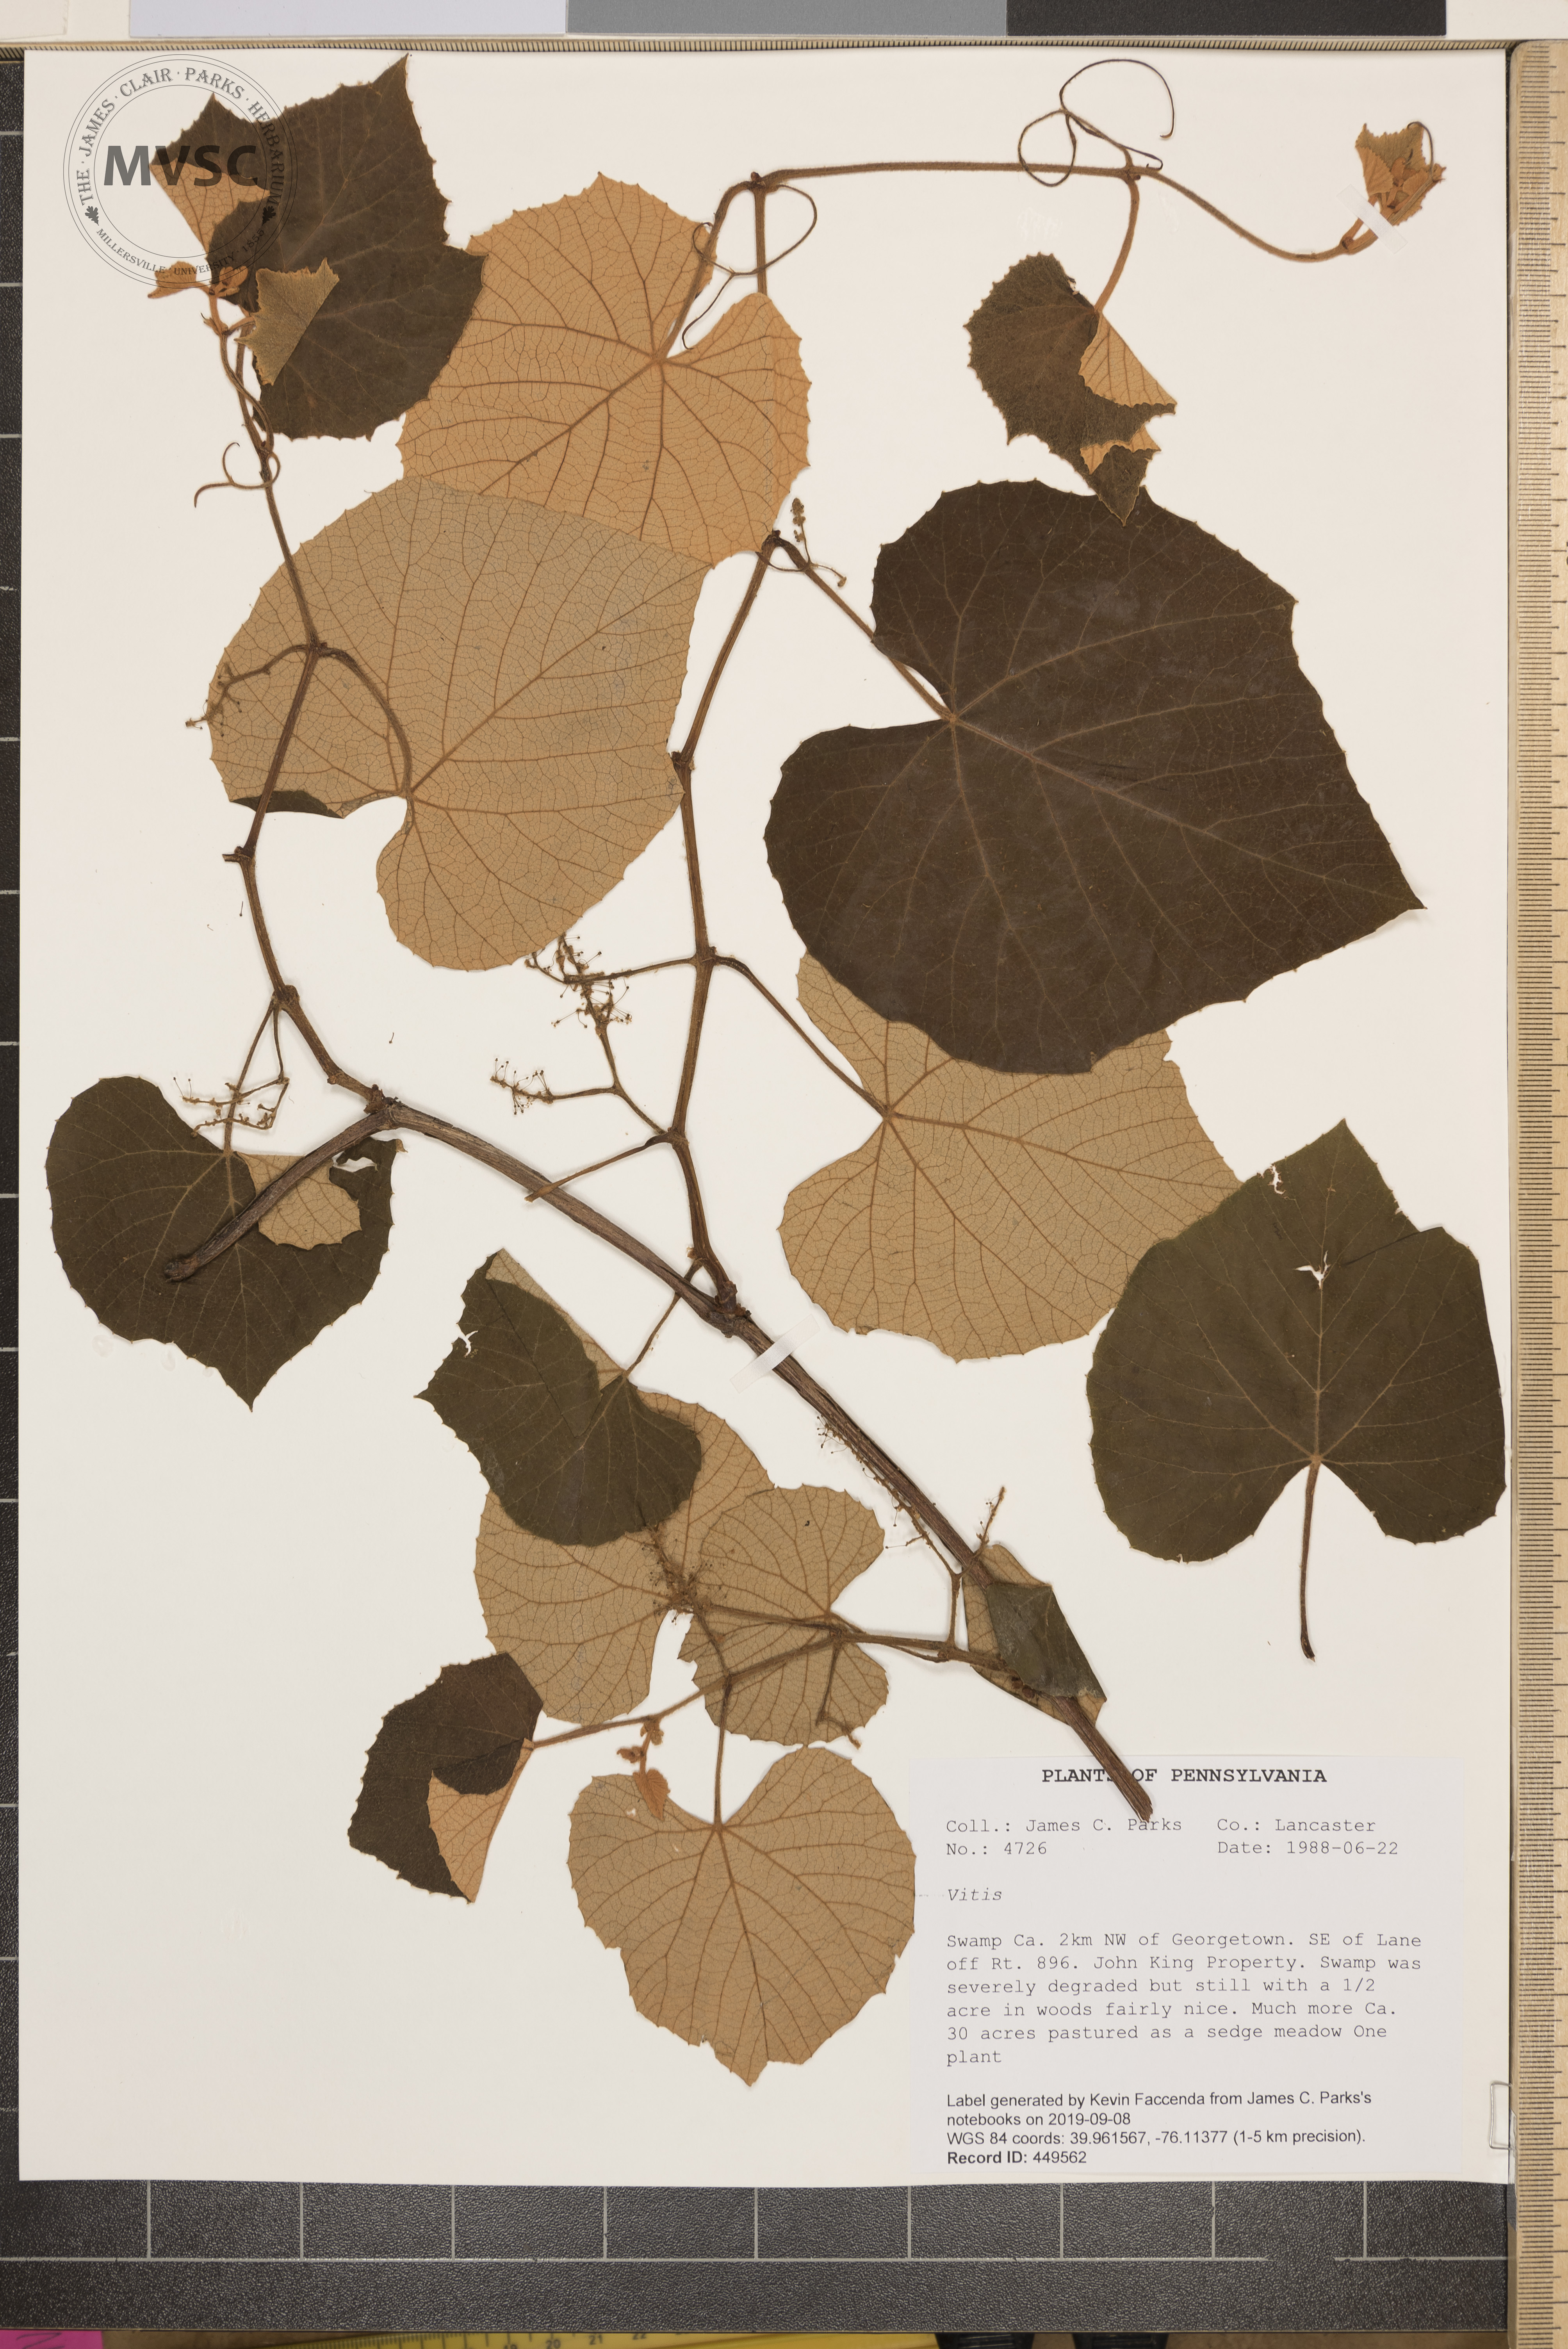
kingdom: Plantae
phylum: Tracheophyta
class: Magnoliopsida
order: Vitales
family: Vitaceae
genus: Vitis
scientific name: Vitis labrusca
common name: Concord grape
